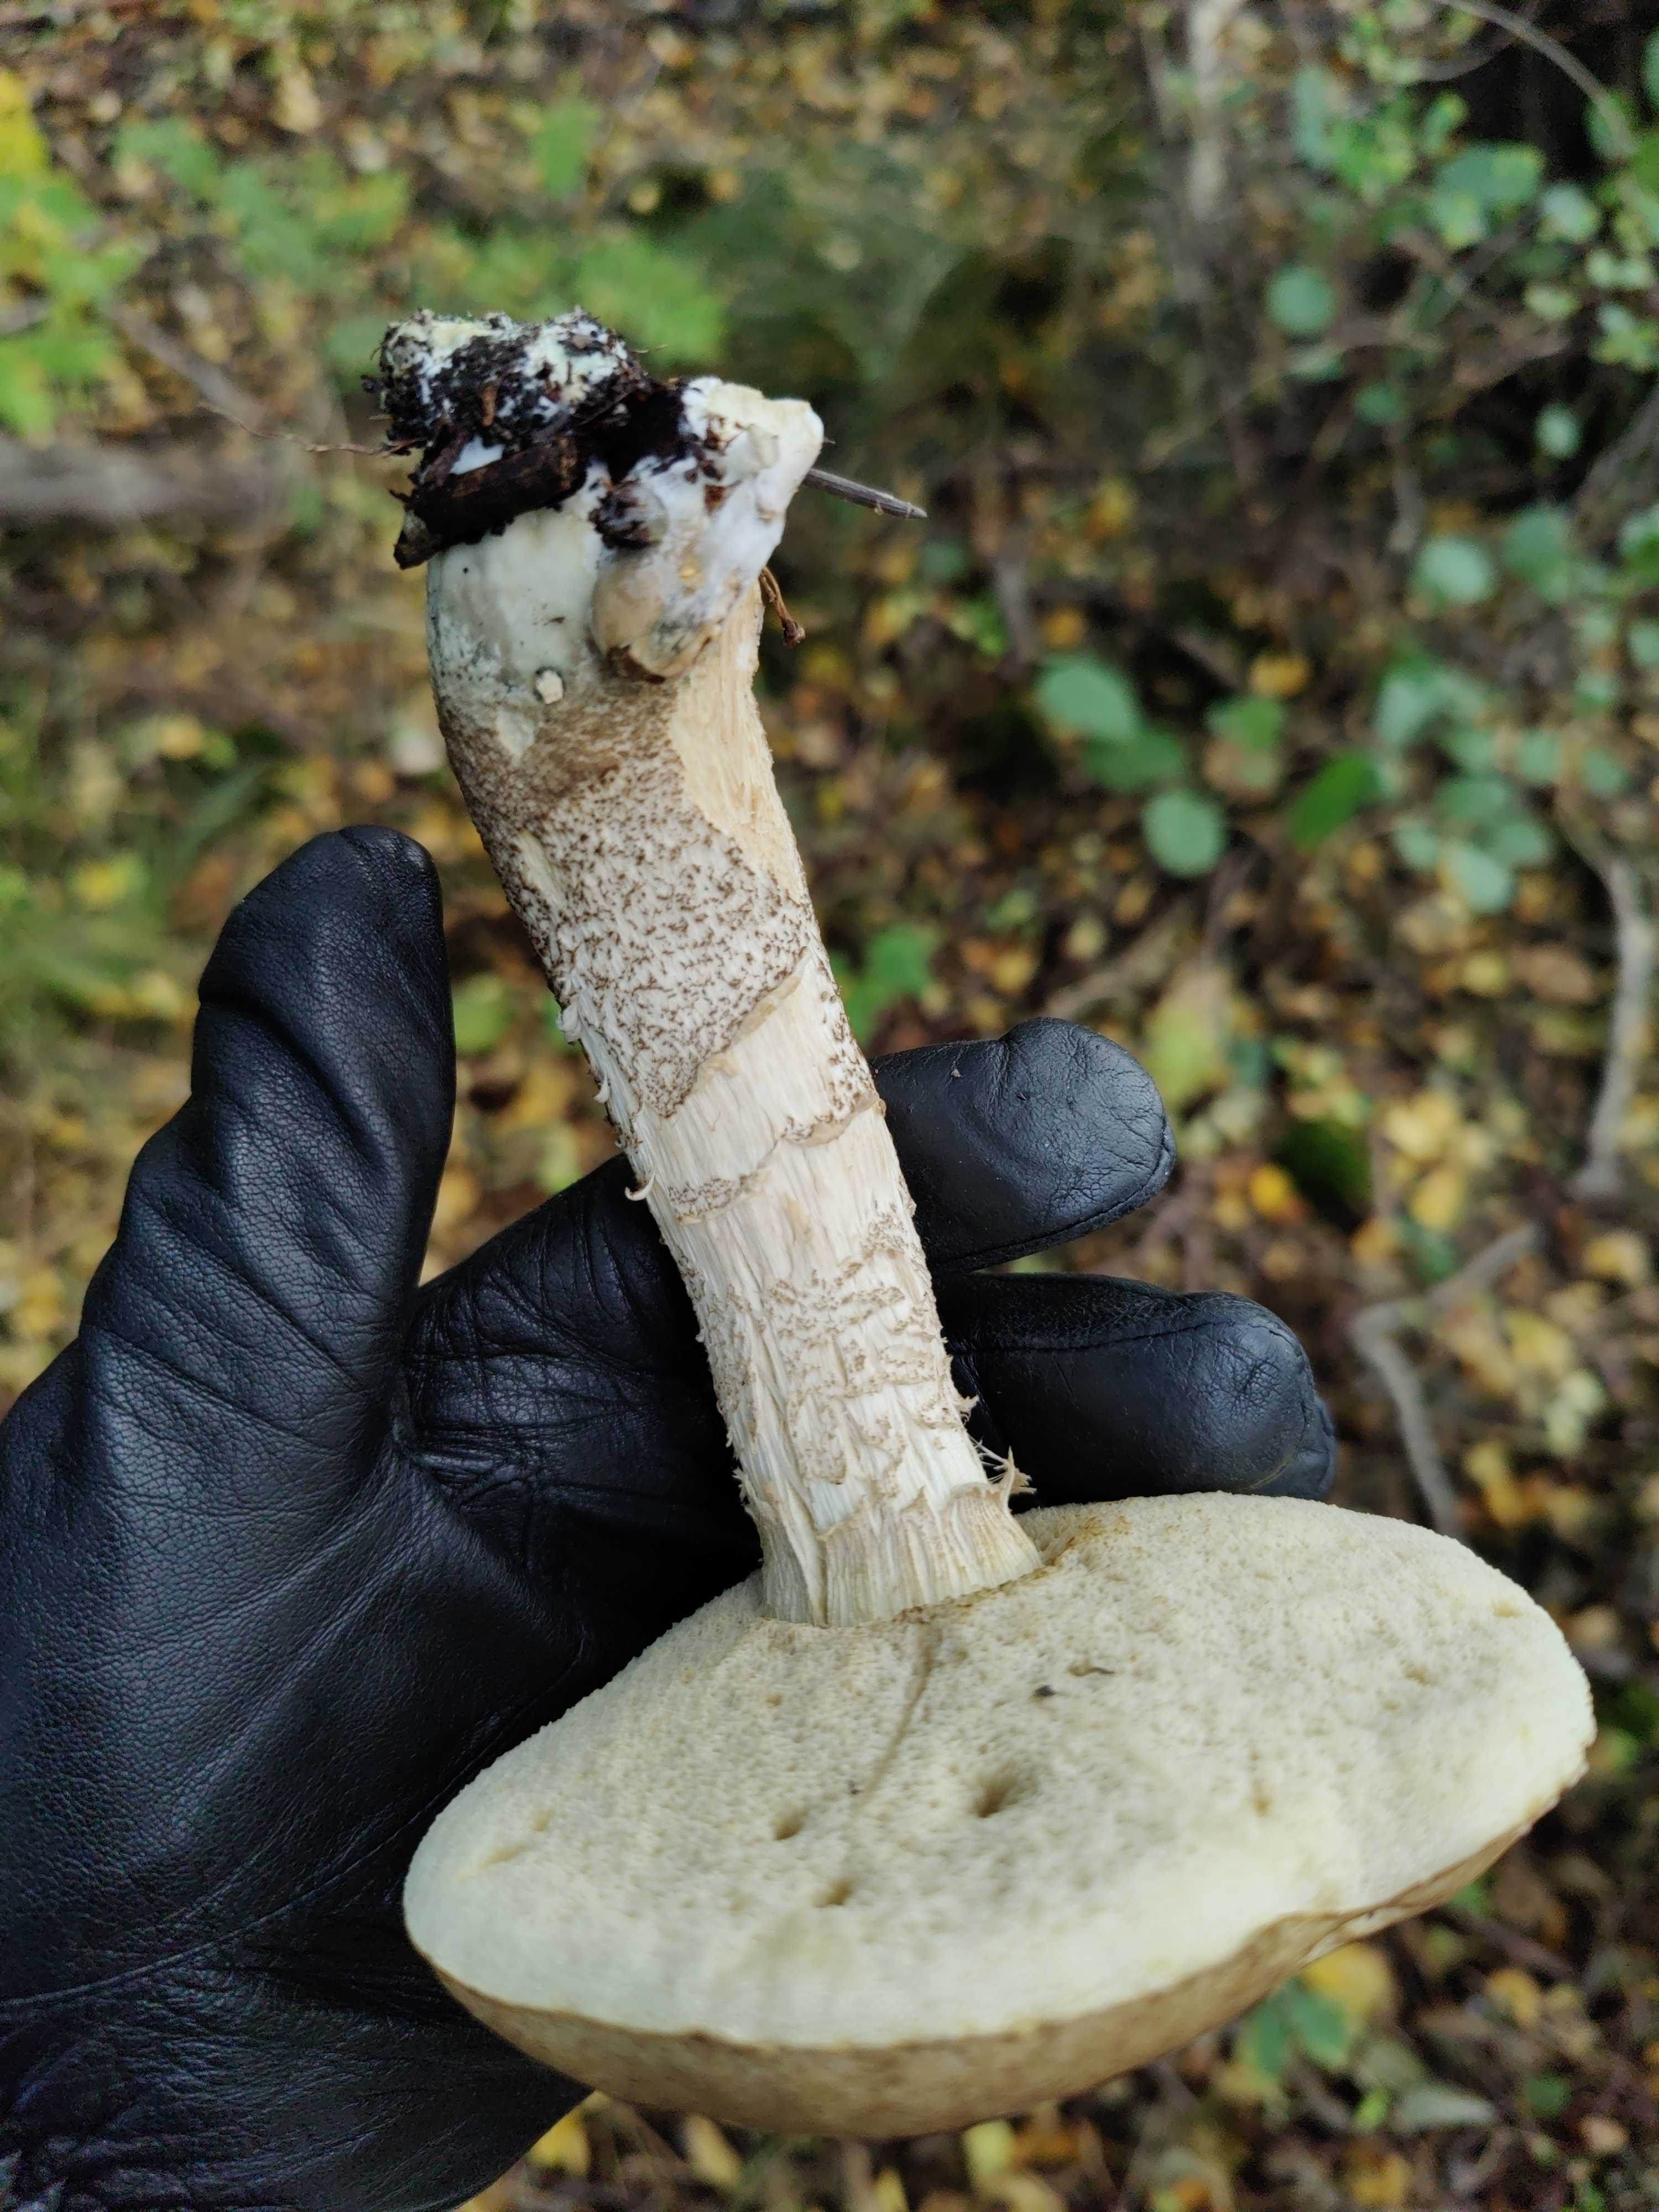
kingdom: Fungi
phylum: Basidiomycota
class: Agaricomycetes
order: Boletales
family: Boletaceae
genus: Leccinum
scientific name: Leccinum cyaneobasileucum
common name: almindelig skælrørhat
